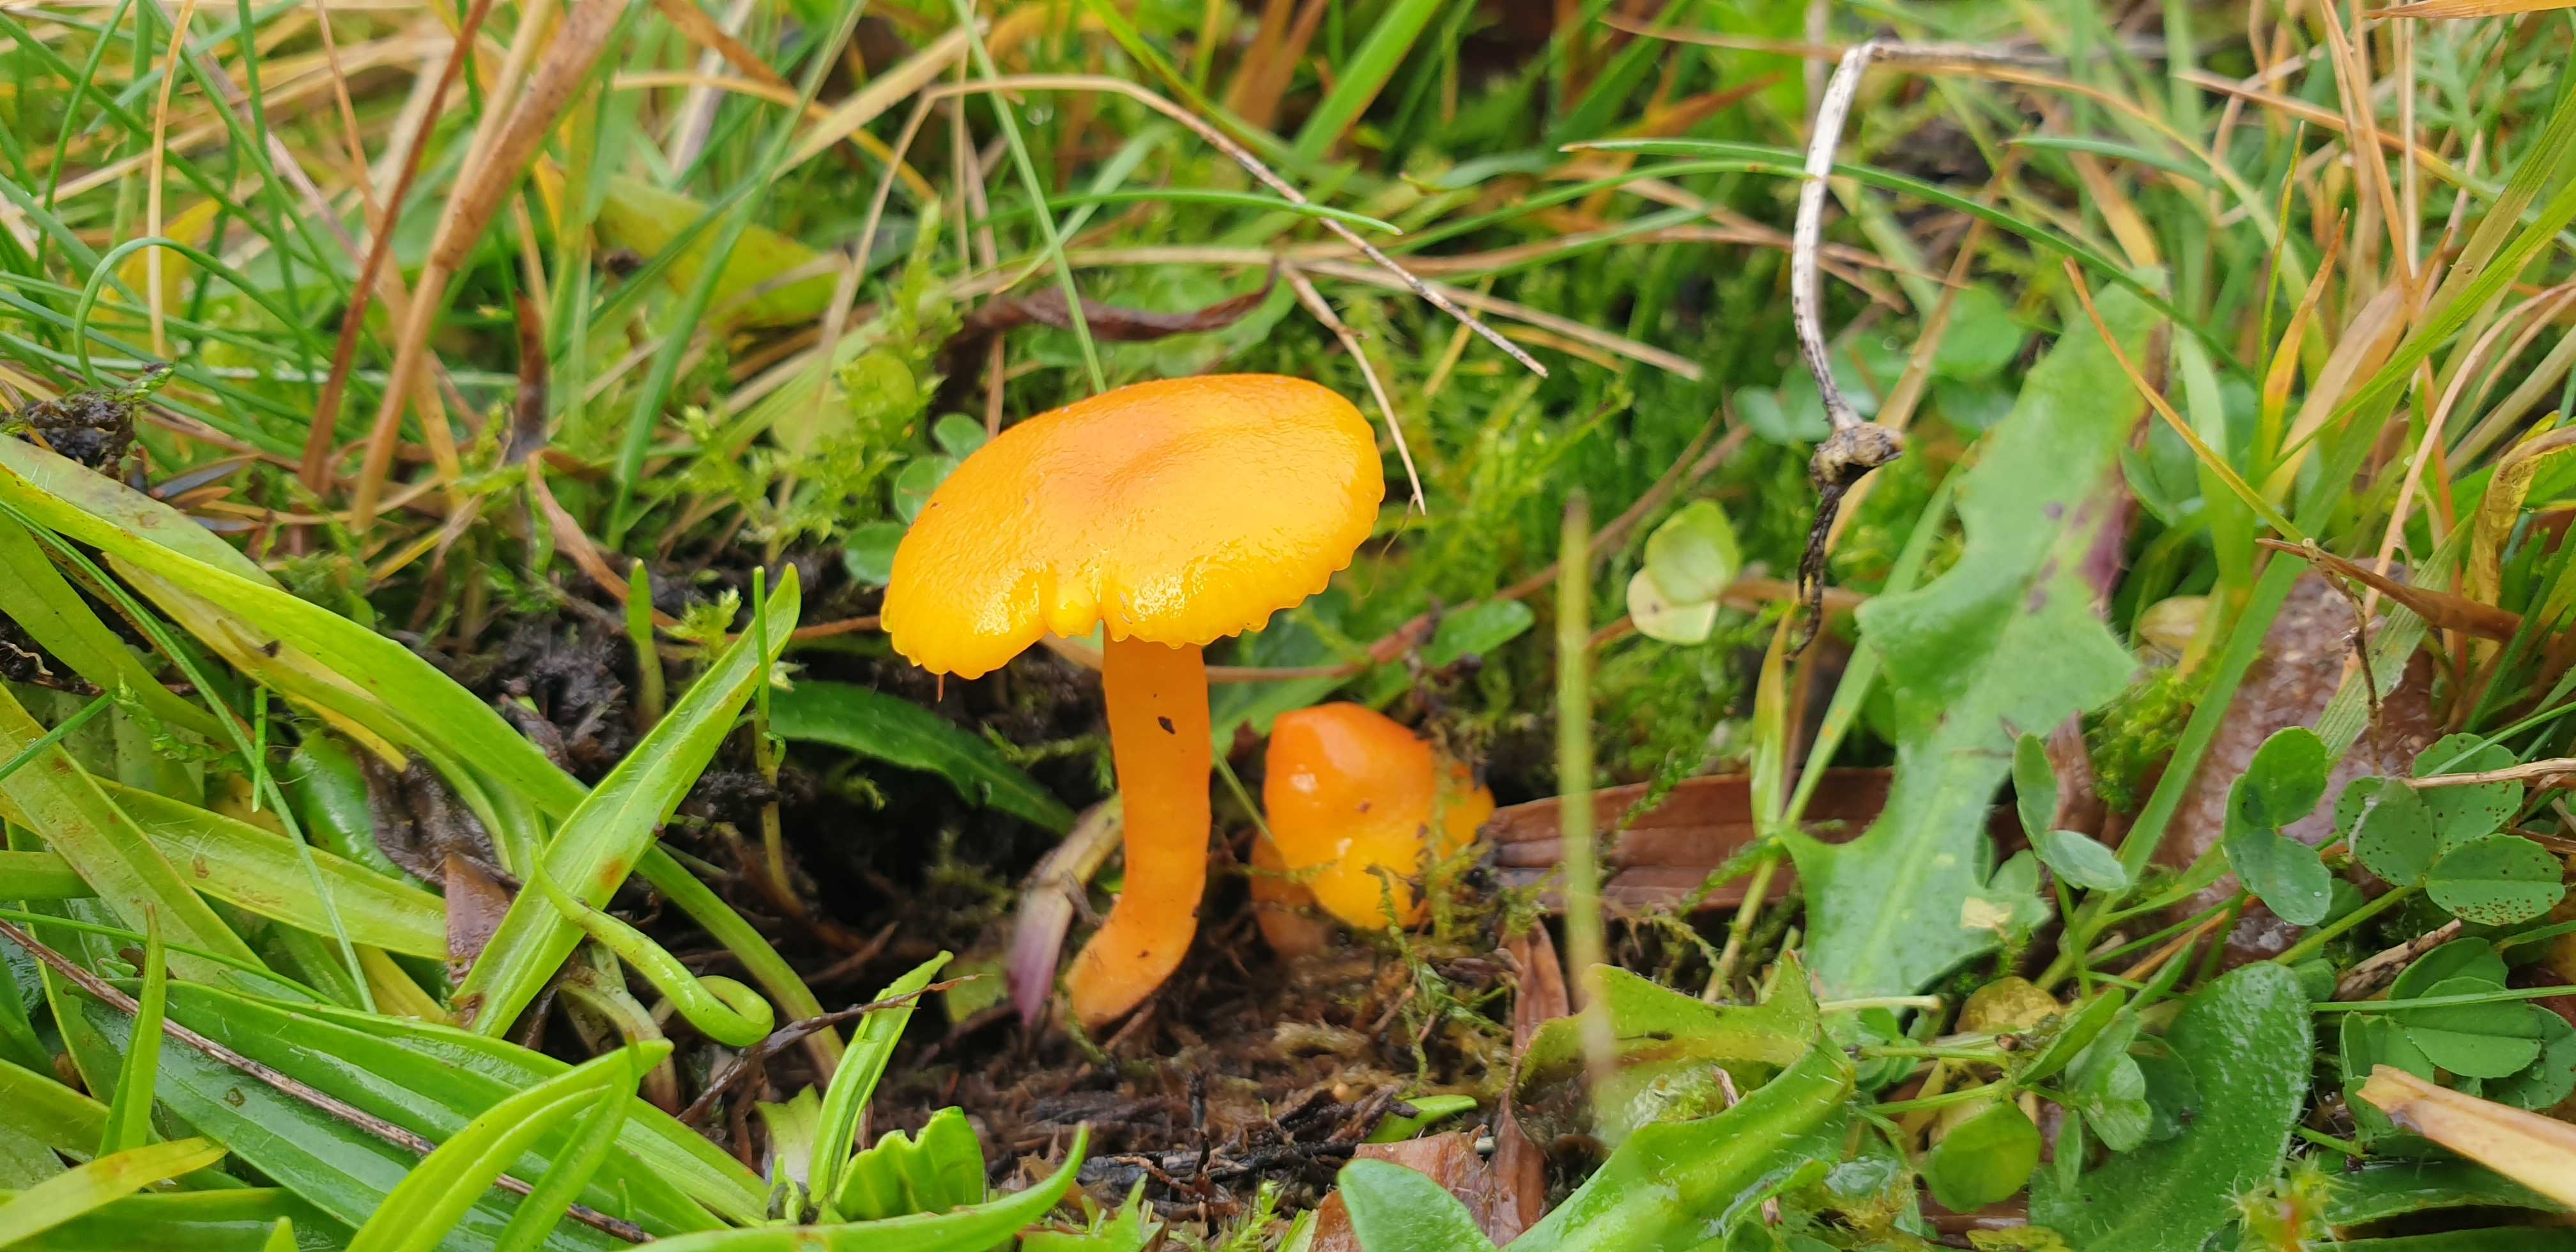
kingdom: Fungi
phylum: Basidiomycota
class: Agaricomycetes
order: Agaricales
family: Hygrophoraceae
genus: Hygrocybe
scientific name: Hygrocybe ceracea
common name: voksgul vokshat
